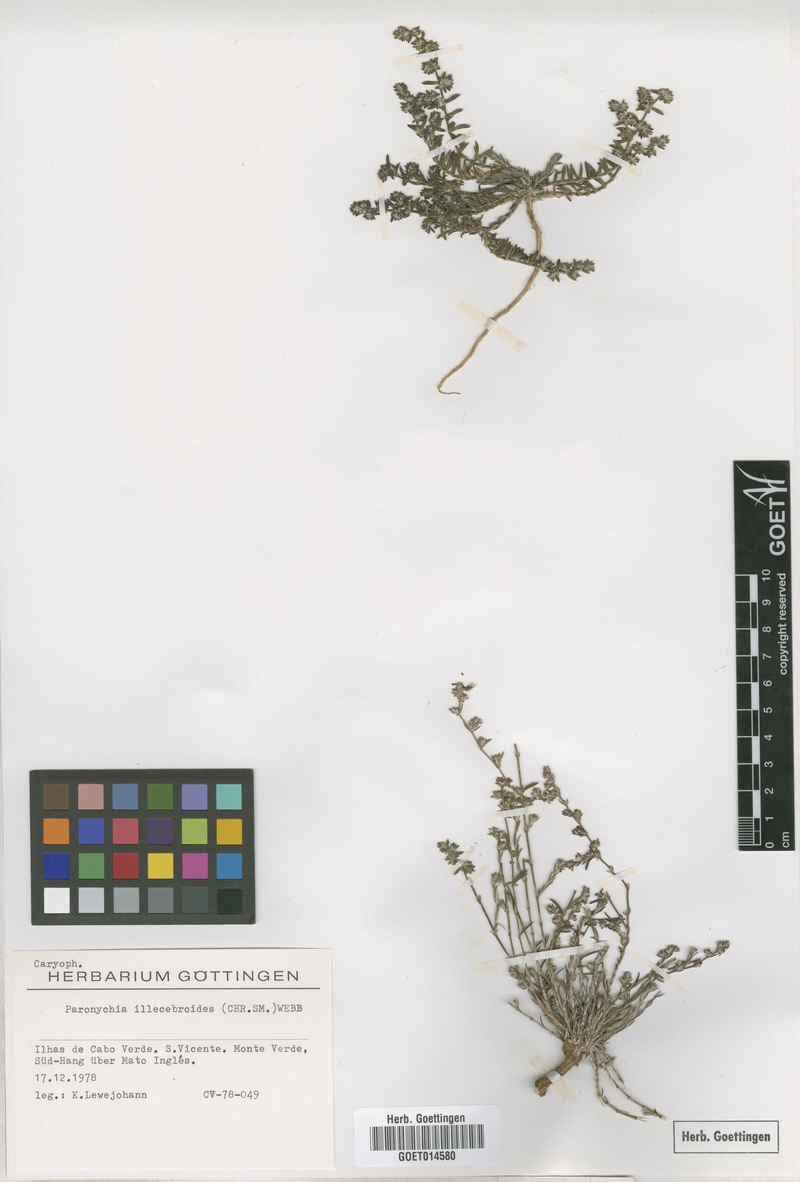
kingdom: Plantae
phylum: Tracheophyta
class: Magnoliopsida
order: Caryophyllales
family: Caryophyllaceae
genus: Paronychia
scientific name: Paronychia illecebroides
